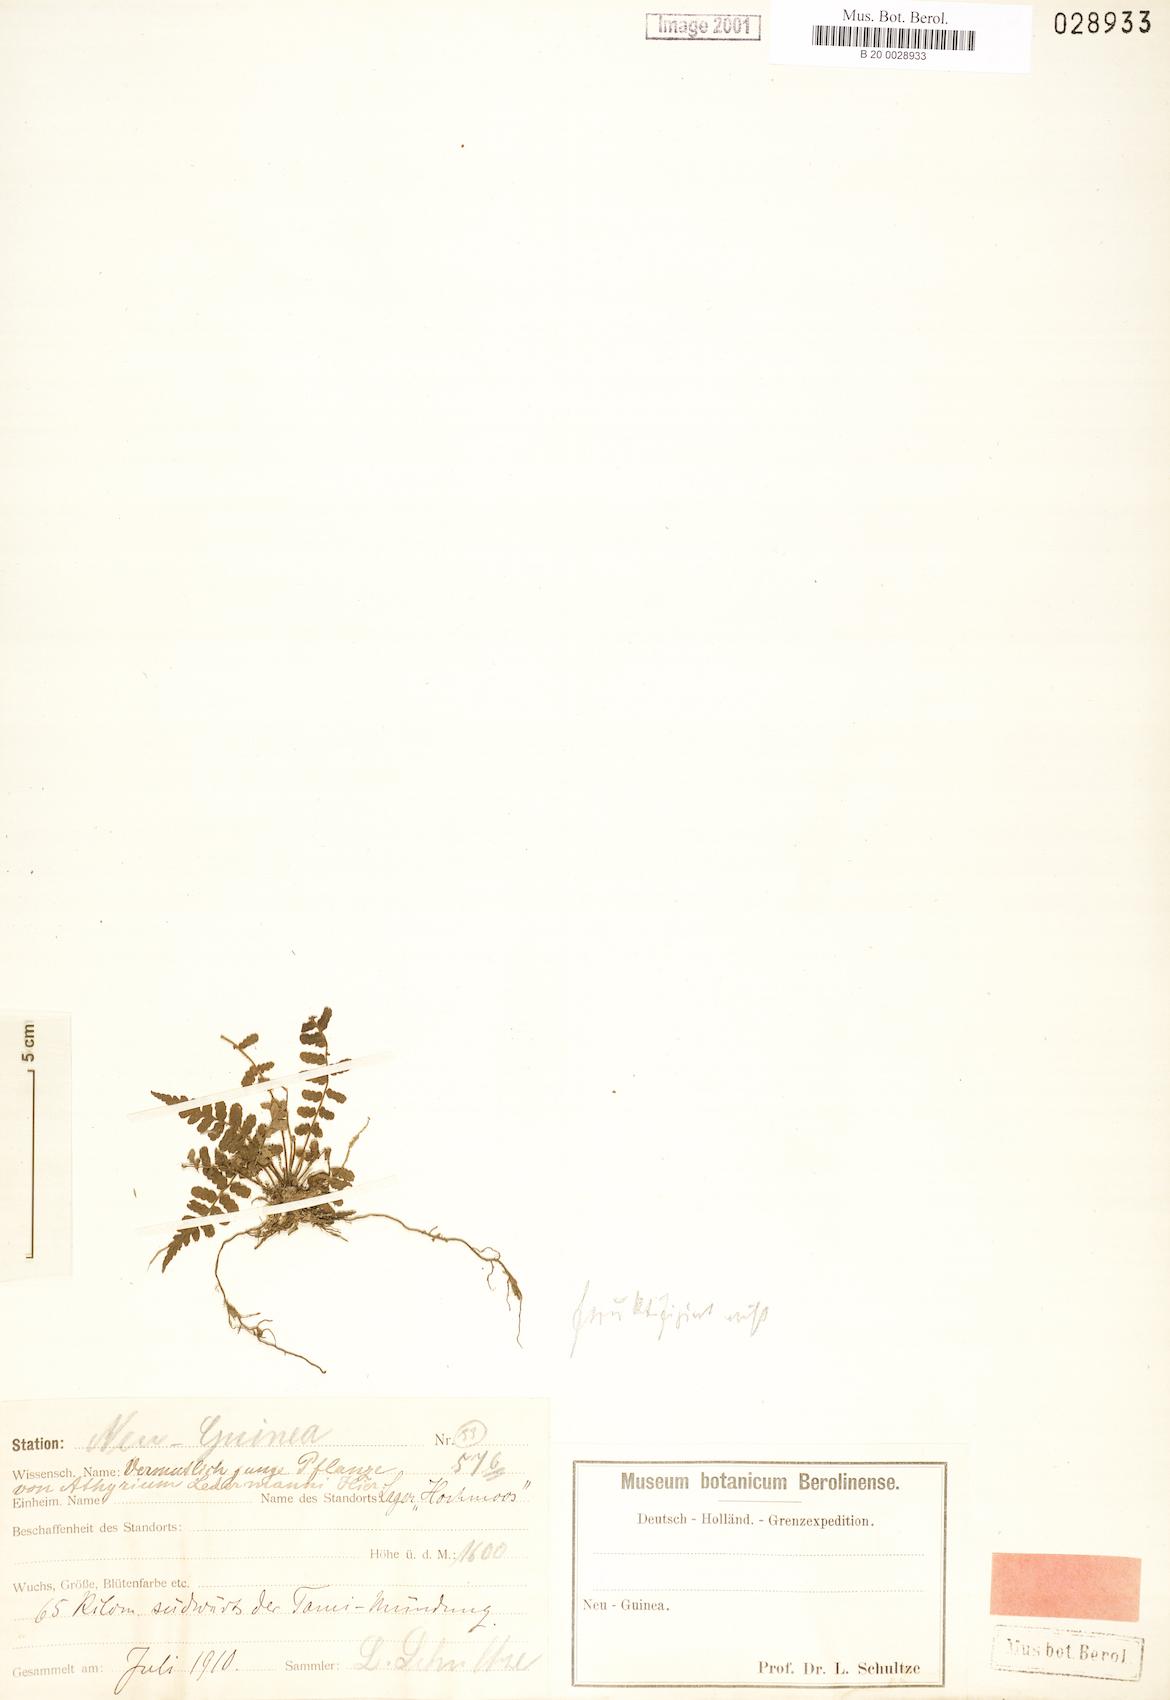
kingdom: Plantae
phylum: Tracheophyta
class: Polypodiopsida
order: Polypodiales
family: Thelypteridaceae
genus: Coryphopteris
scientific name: Coryphopteris ledermannii
